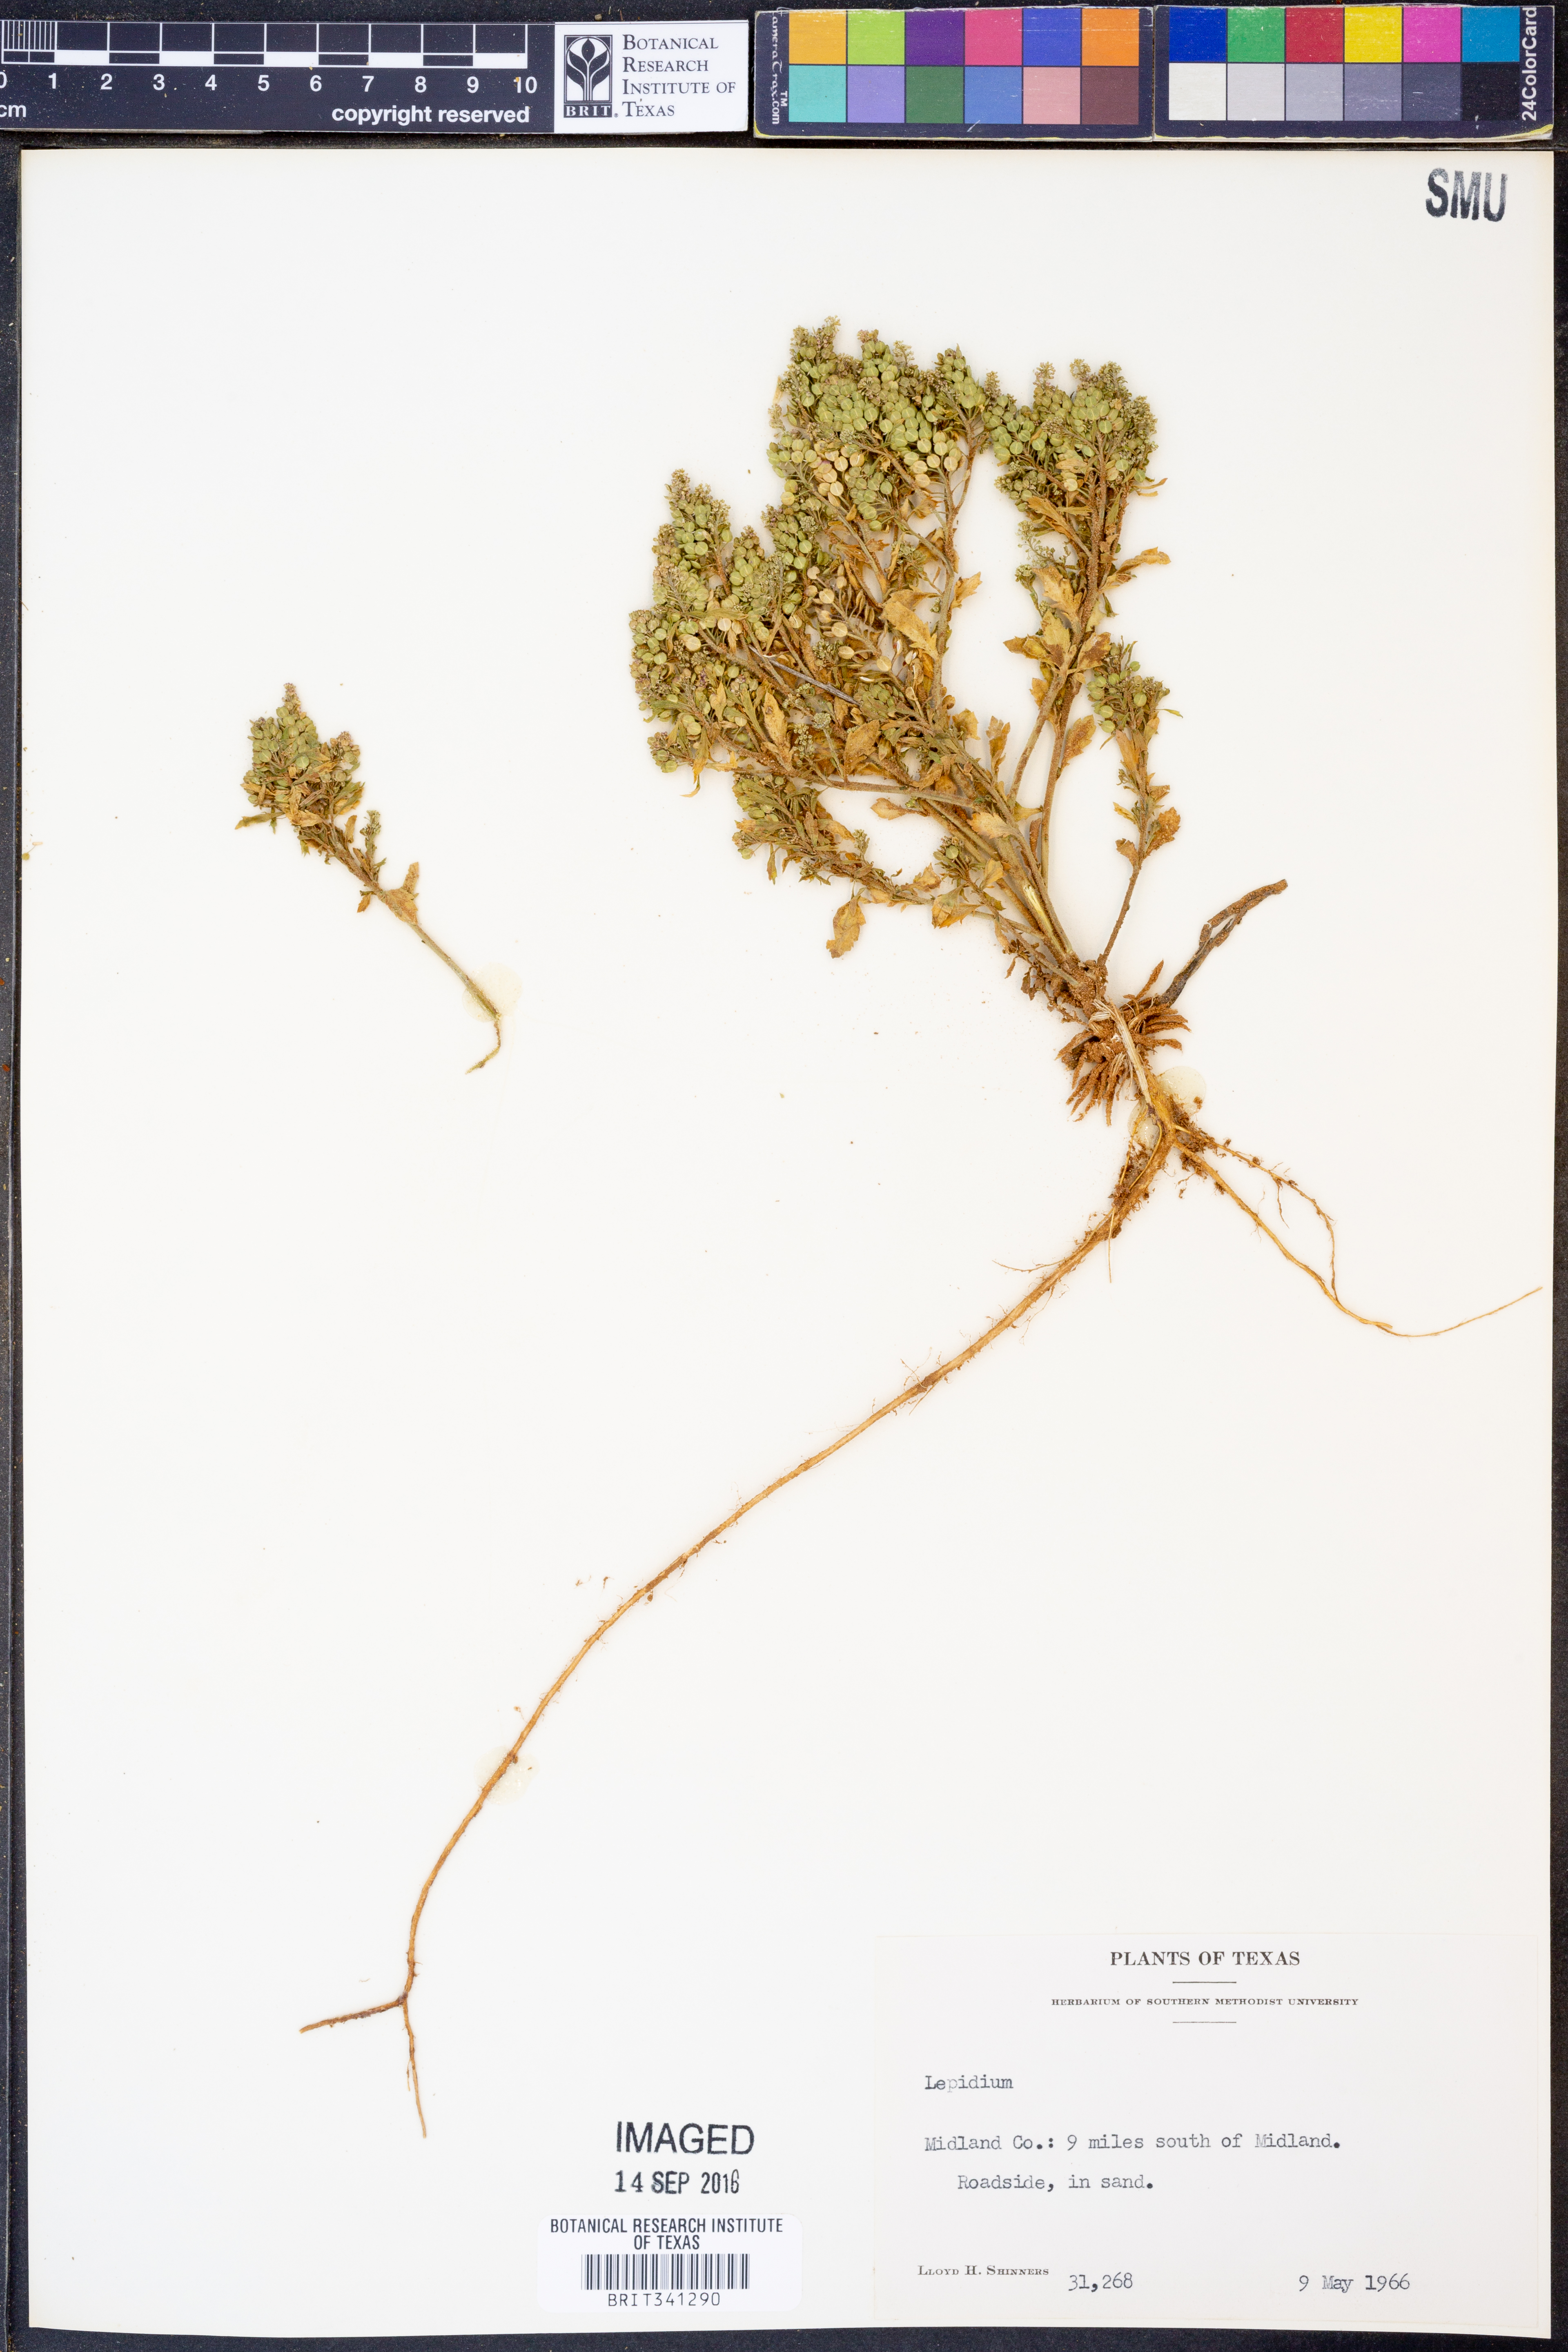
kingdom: Plantae
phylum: Tracheophyta
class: Magnoliopsida
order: Brassicales
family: Brassicaceae
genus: Lepidium
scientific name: Lepidium
